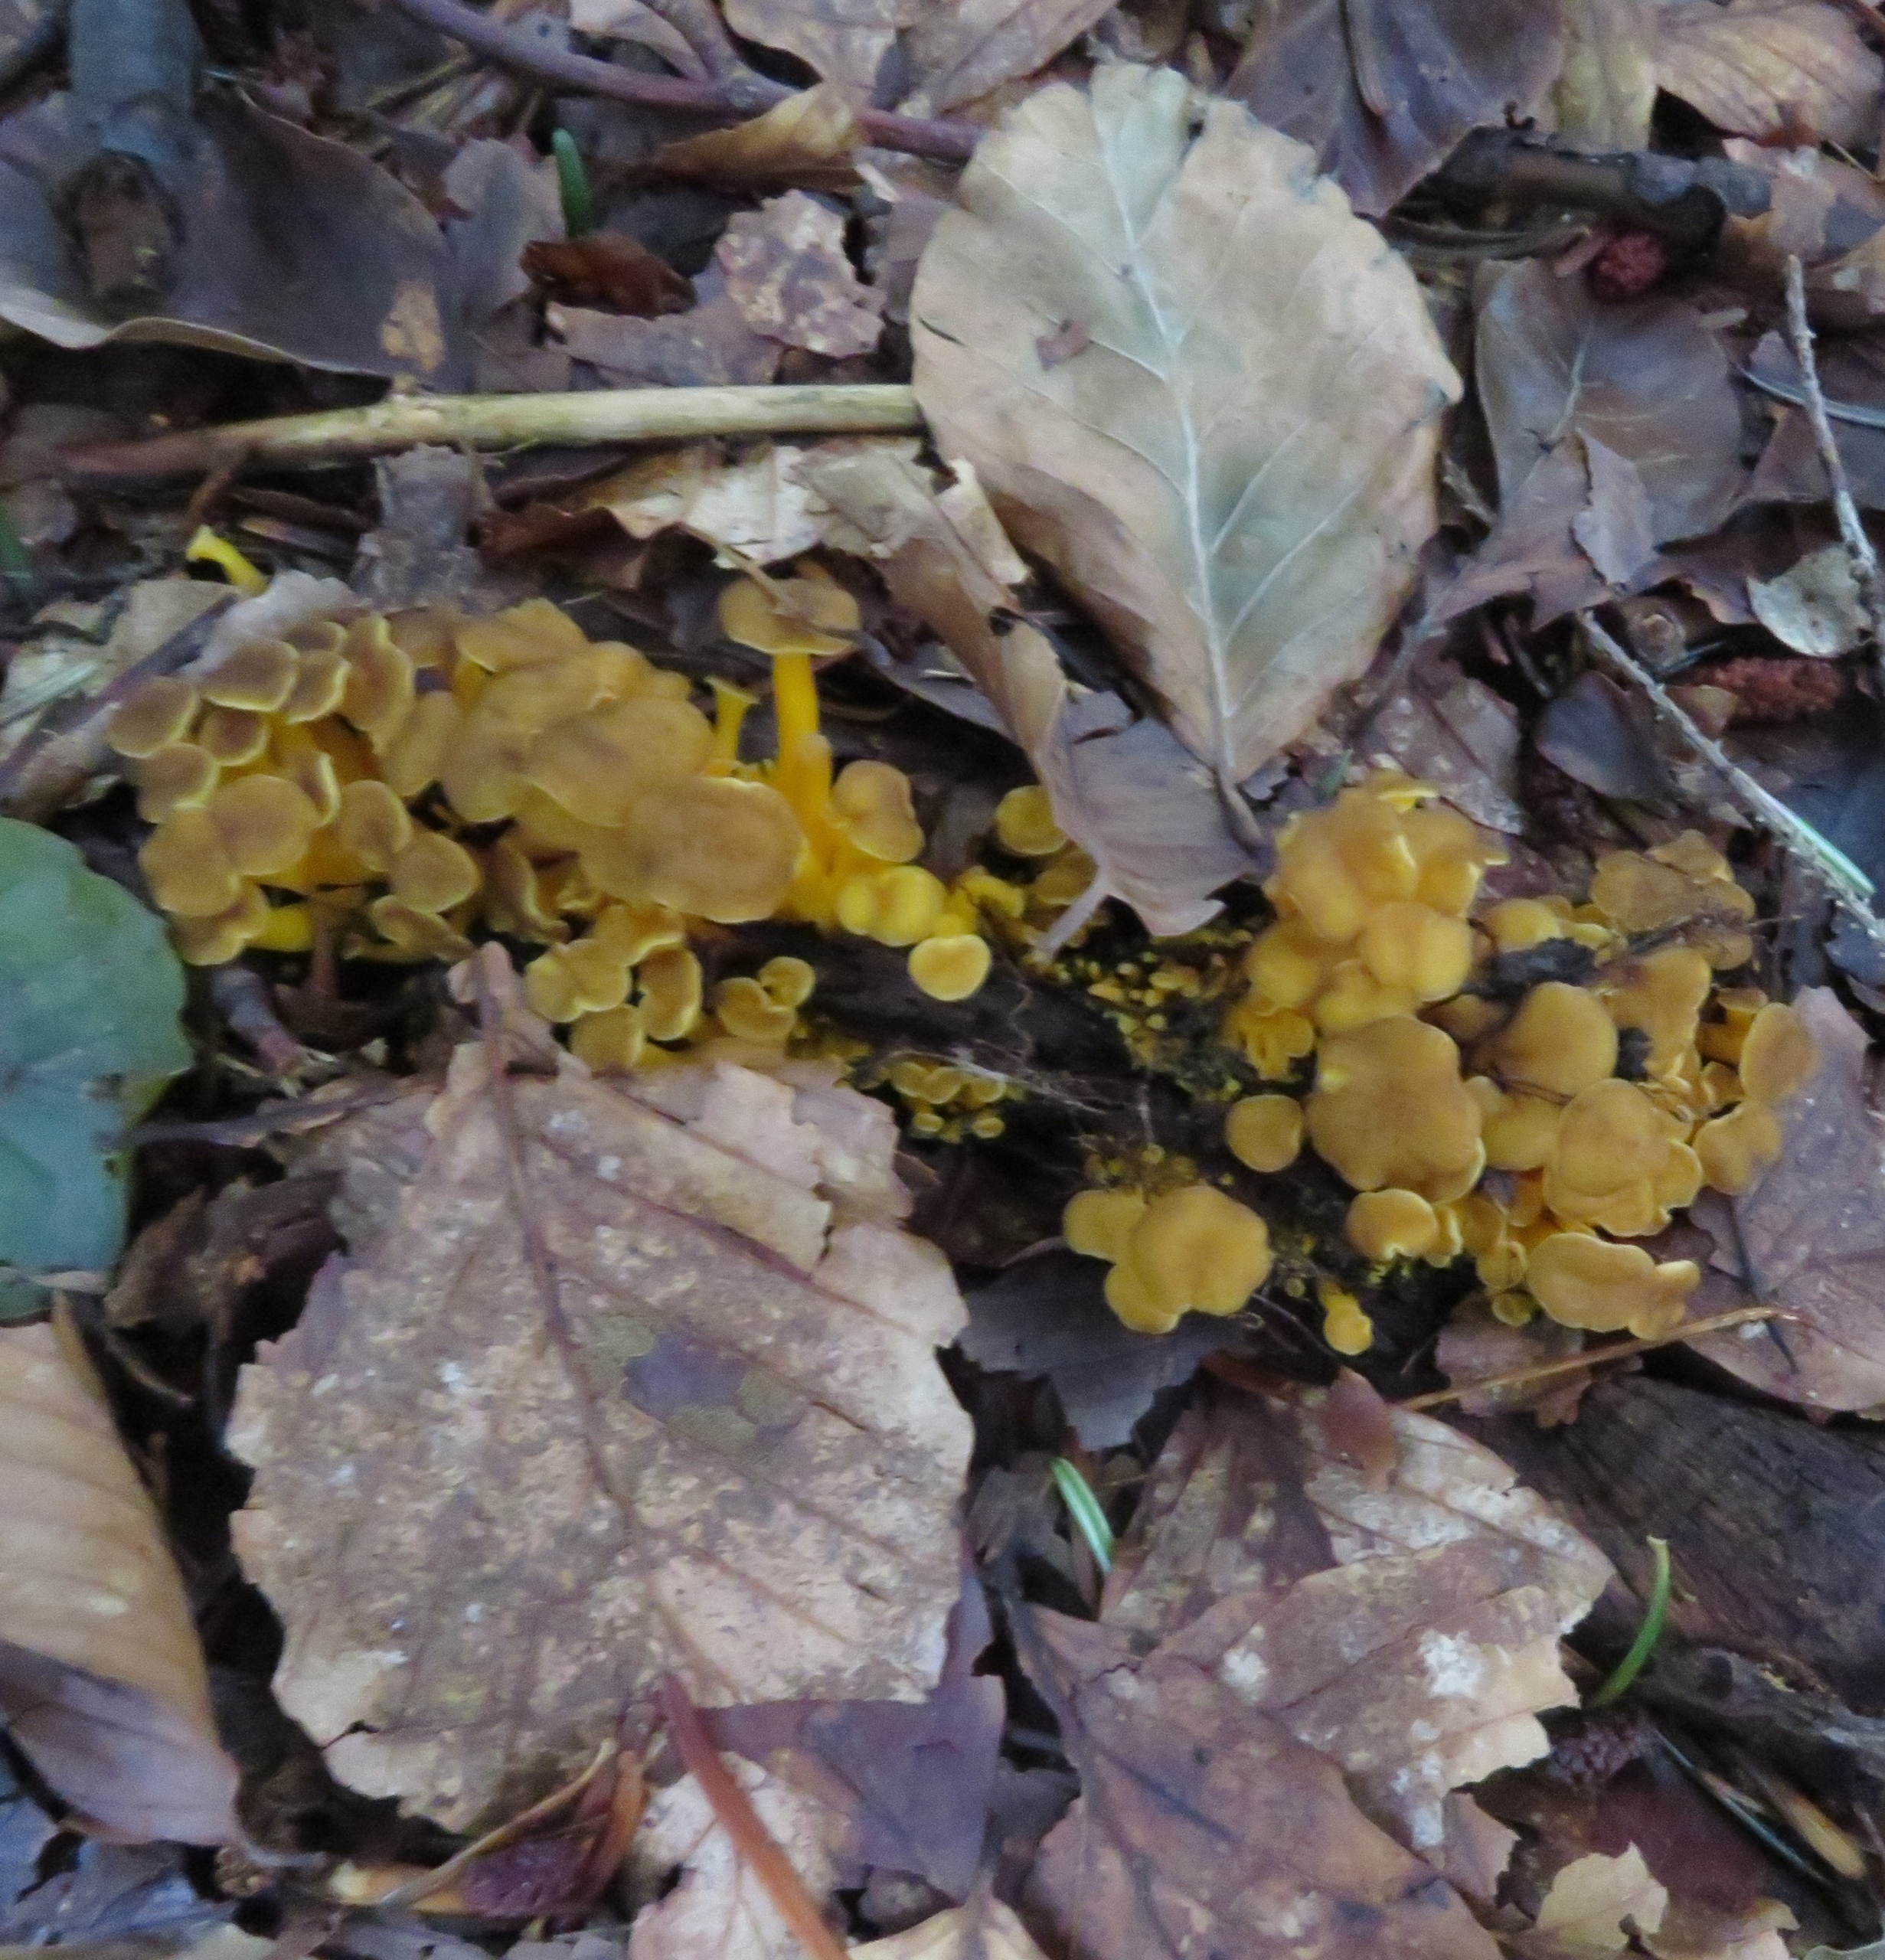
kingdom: Fungi
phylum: Basidiomycota
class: Agaricomycetes
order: Cantharellales
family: Hydnaceae
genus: Craterellus
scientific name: Craterellus tubaeformis
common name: Tragt-kantarel
